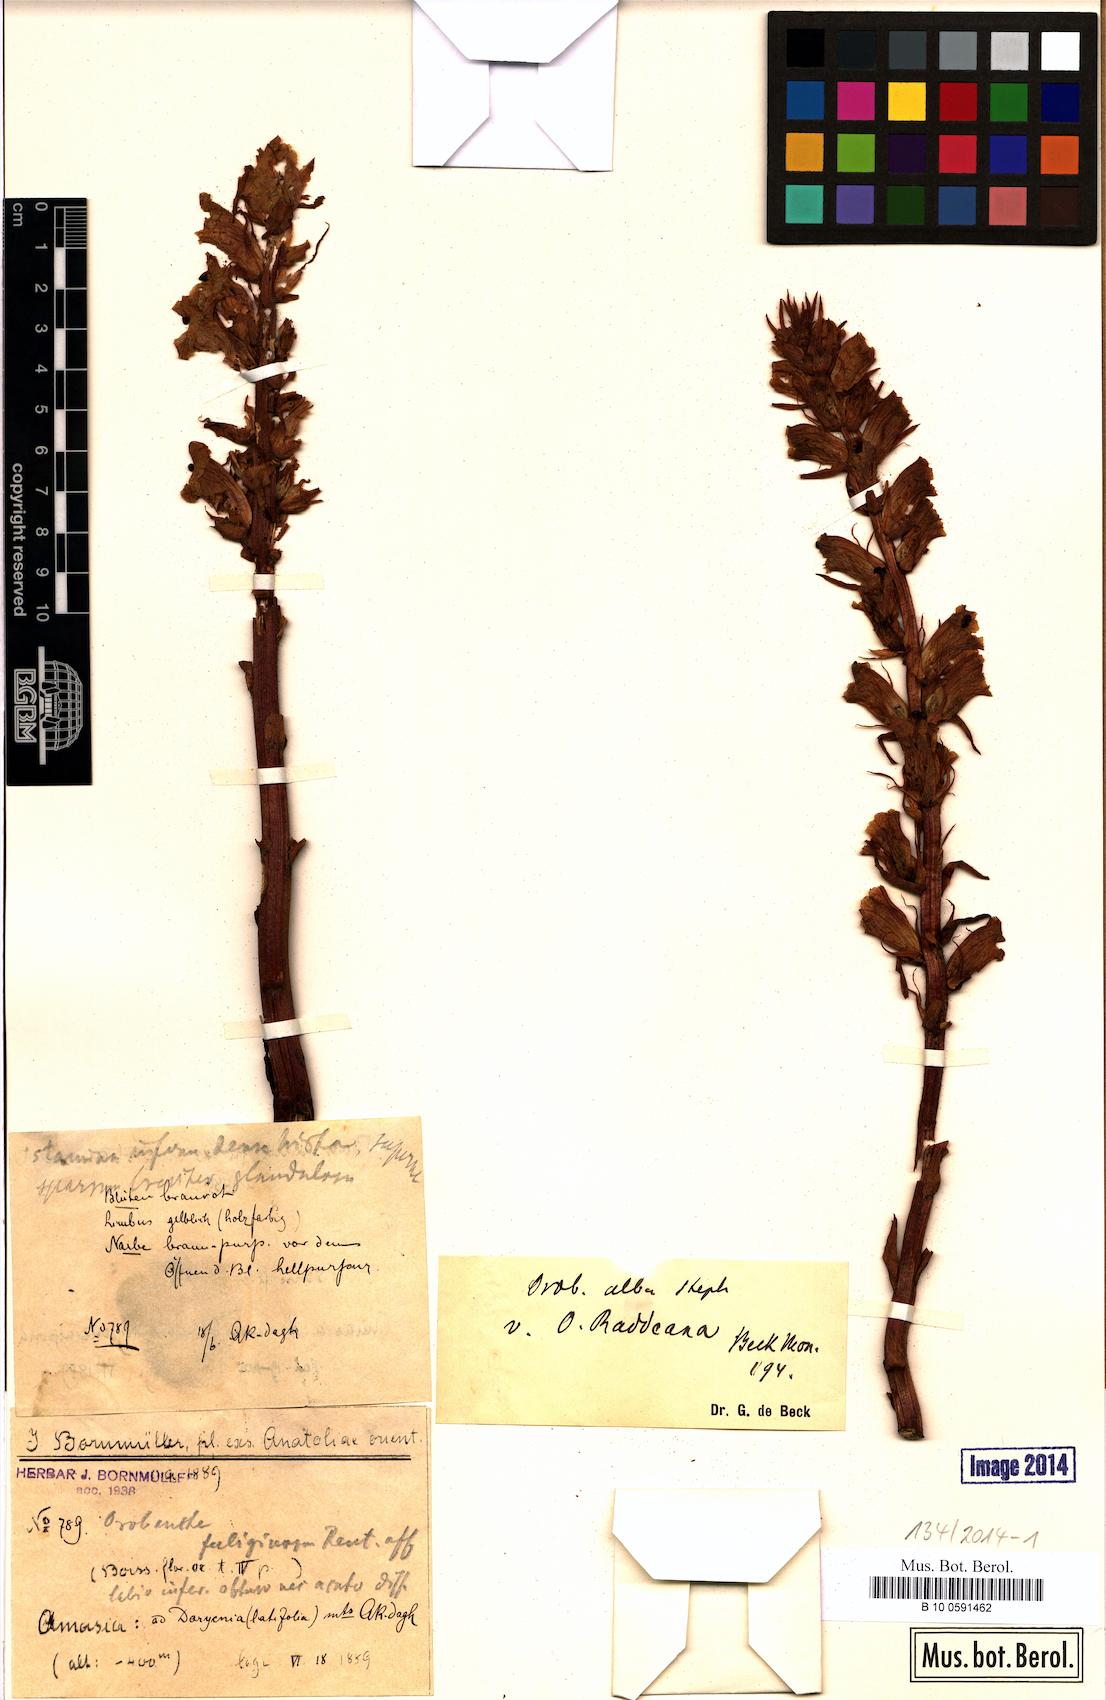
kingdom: Plantae
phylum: Tracheophyta
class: Magnoliopsida
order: Lamiales
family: Orobanchaceae
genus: Orobanche
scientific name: Orobanche alba
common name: Thyme broomrape
